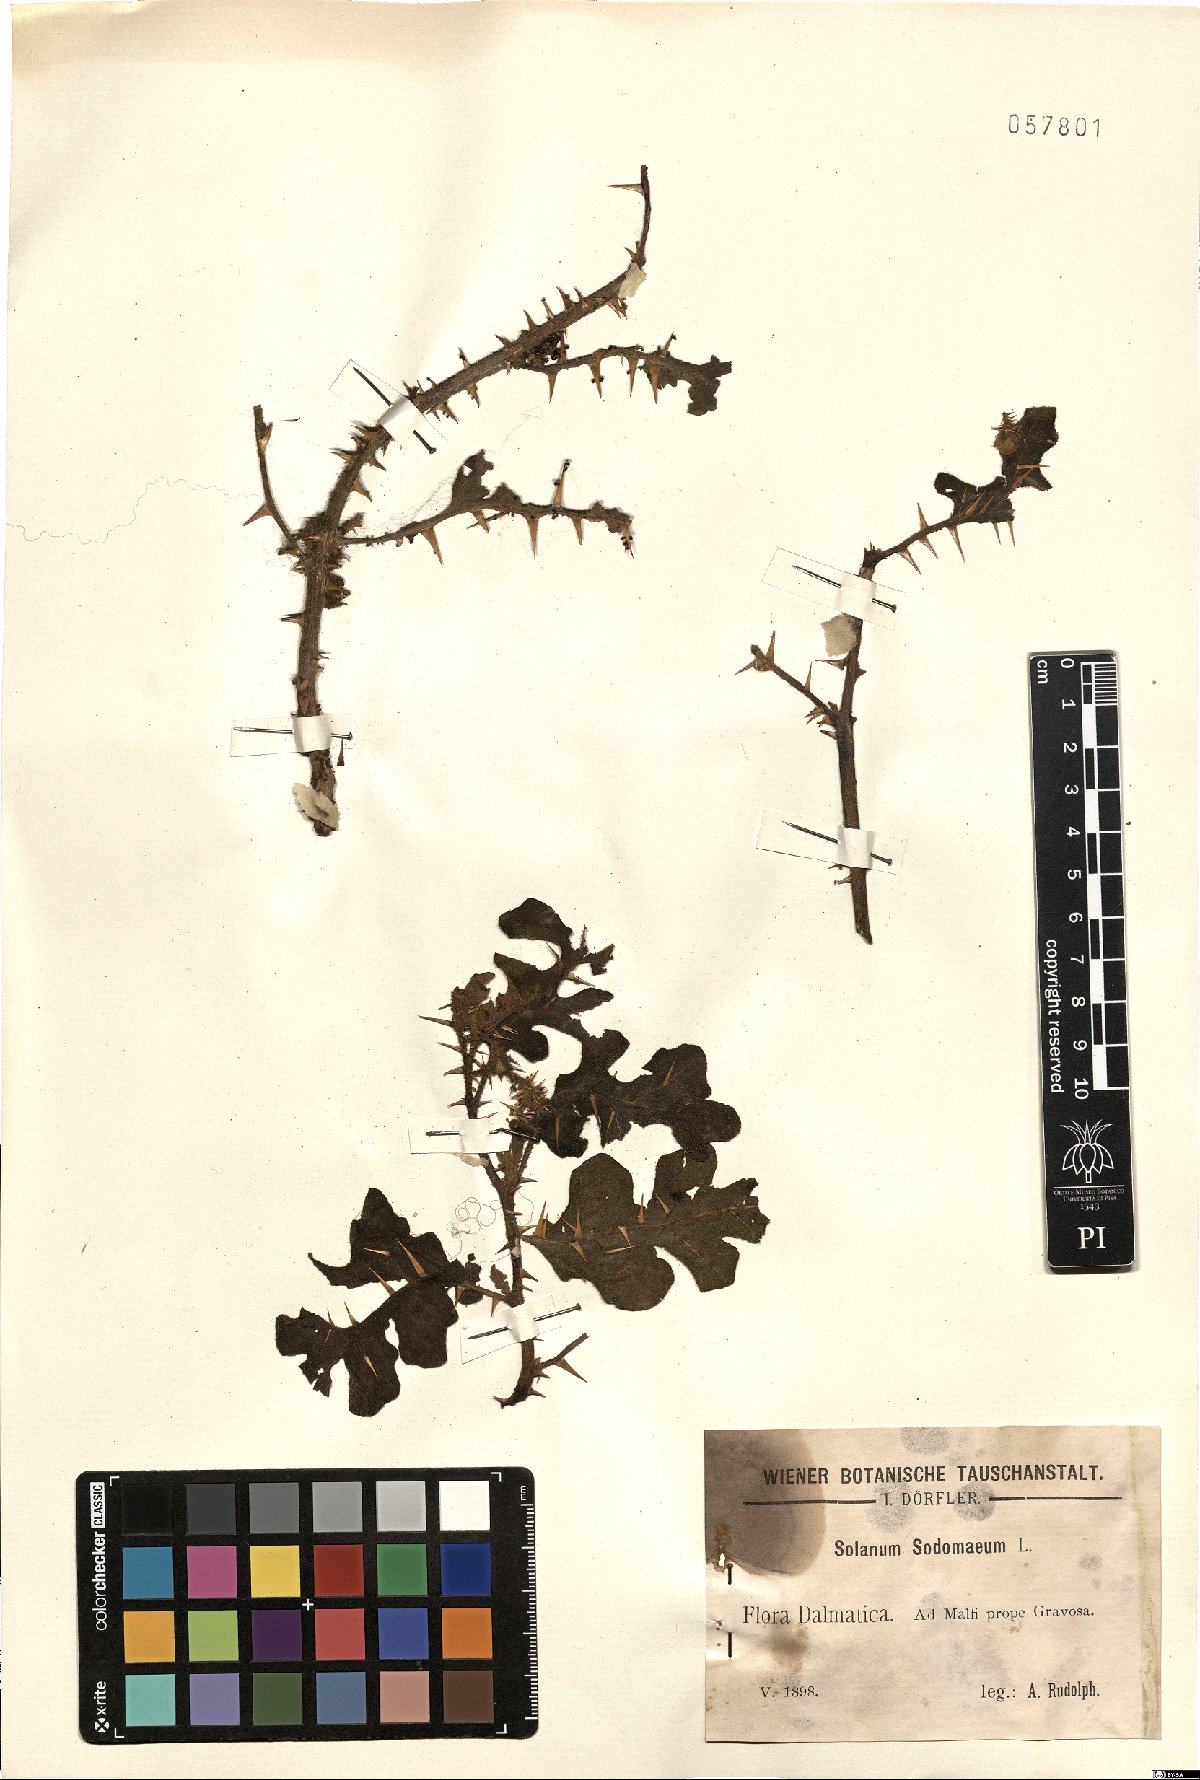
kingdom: Plantae
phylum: Tracheophyta
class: Magnoliopsida
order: Solanales
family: Solanaceae
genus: Solanum
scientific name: Solanum anguivi
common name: Forest bitterberry
